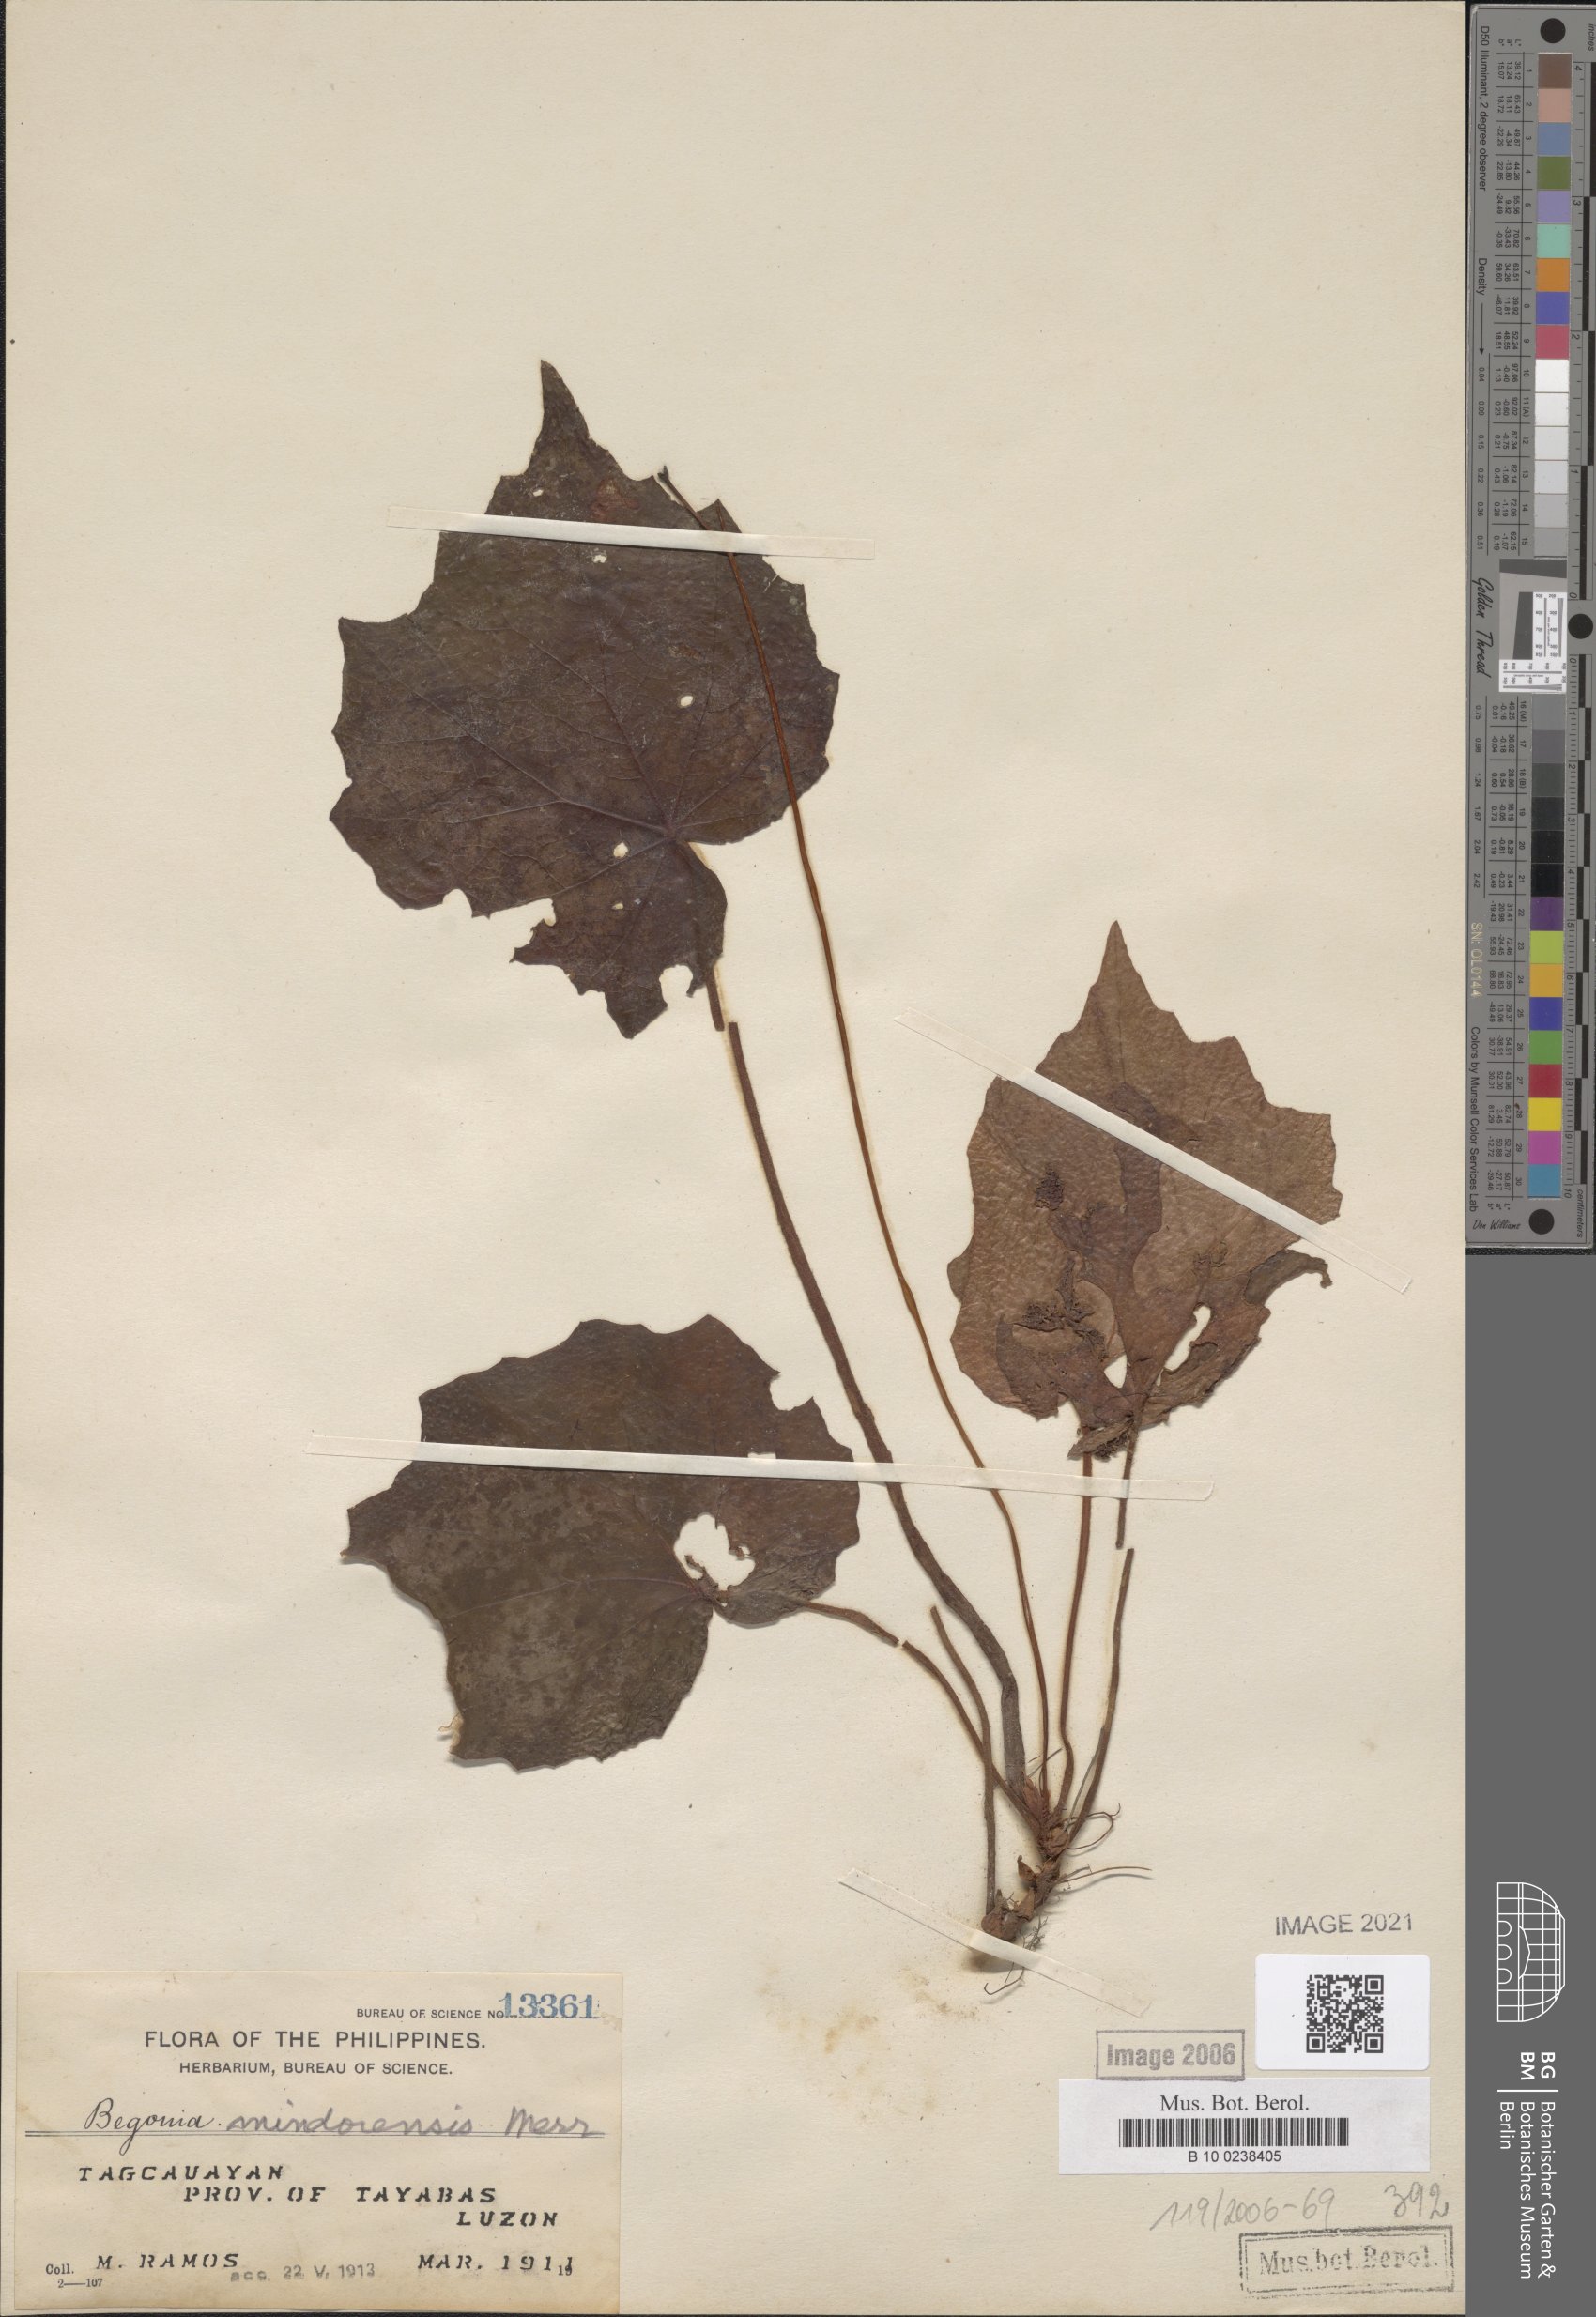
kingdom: Plantae
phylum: Tracheophyta
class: Magnoliopsida
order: Cucurbitales
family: Begoniaceae
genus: Begonia
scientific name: Begonia mindorensis
